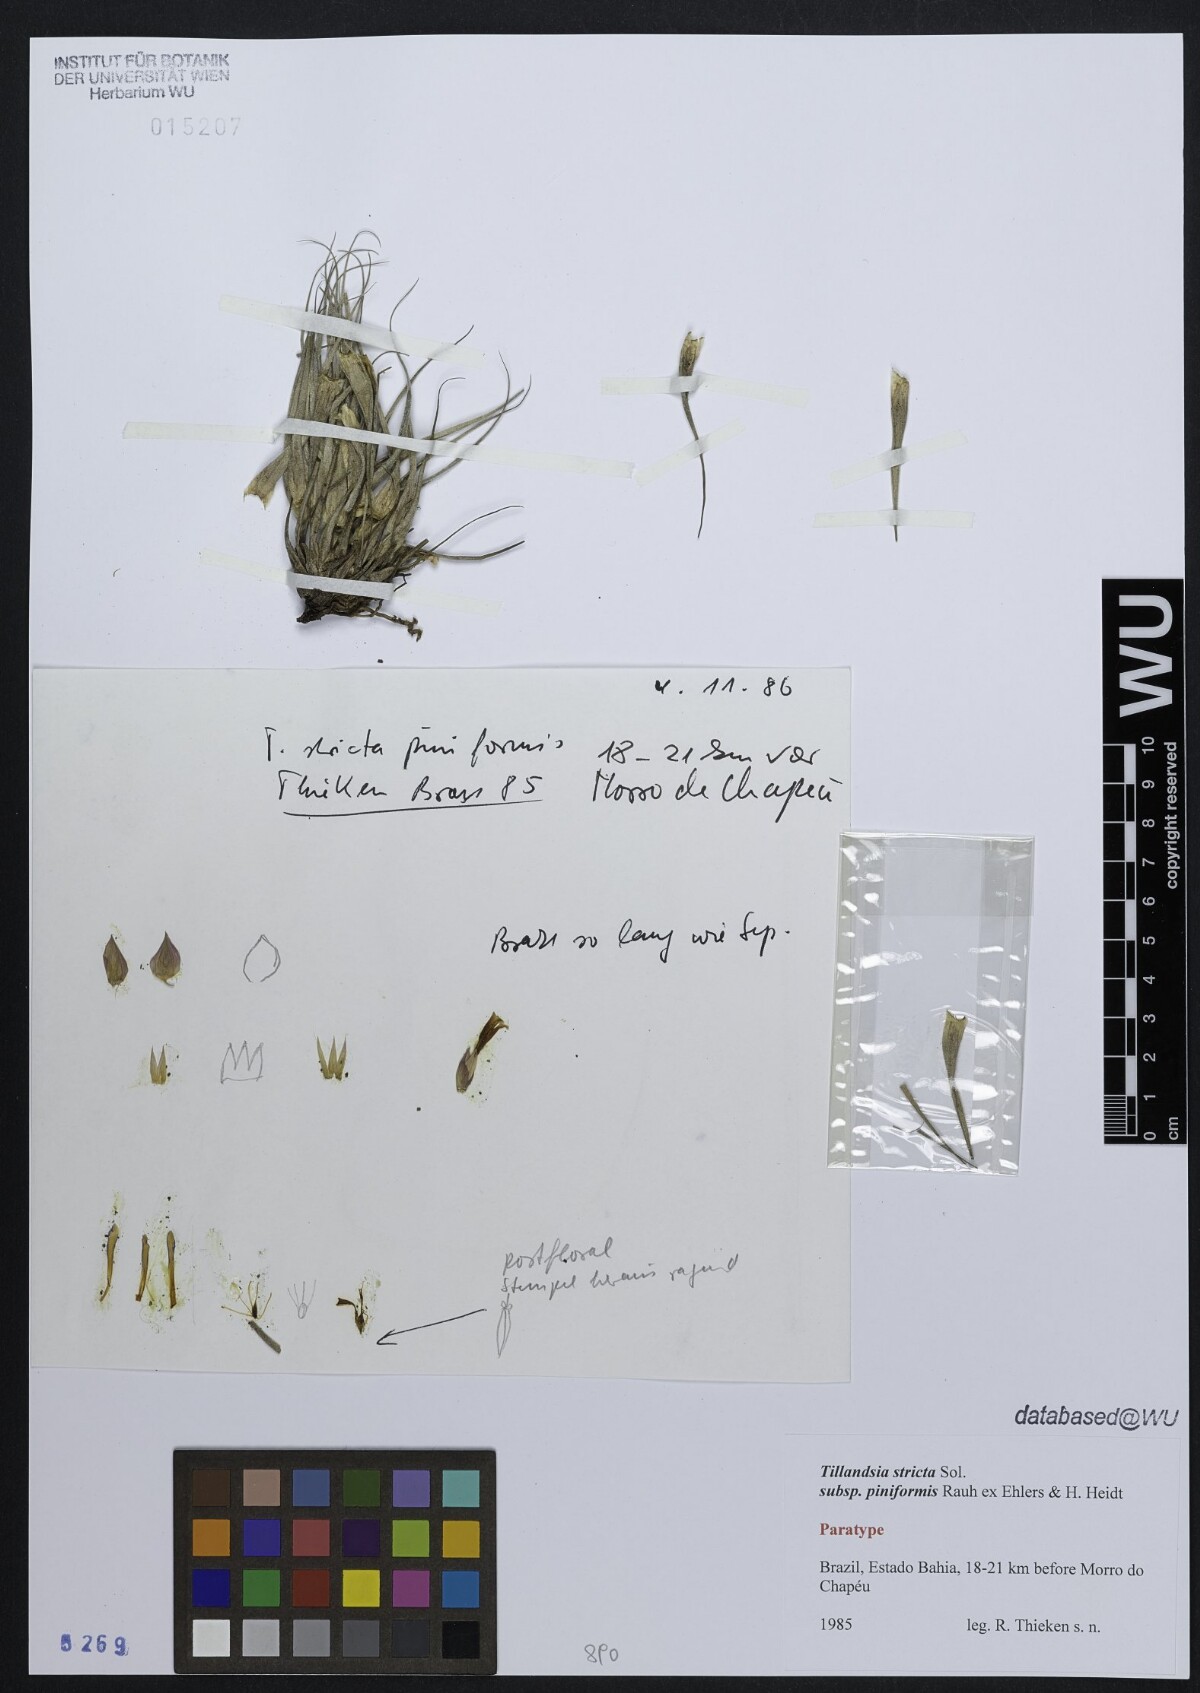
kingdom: Plantae
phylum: Tracheophyta
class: Liliopsida
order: Poales
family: Bromeliaceae
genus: Tillandsia
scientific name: Tillandsia stricta
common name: Airplant
